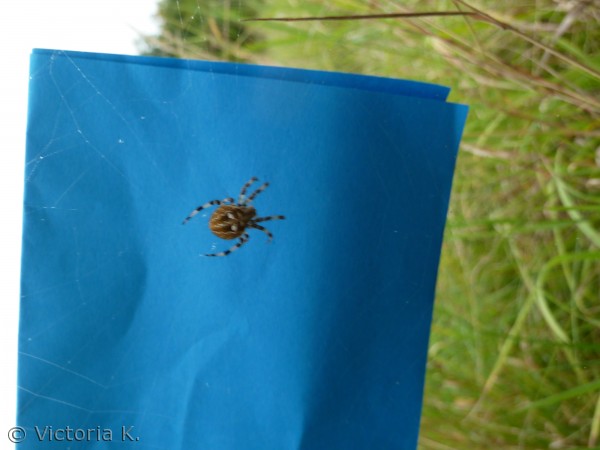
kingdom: Animalia
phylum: Arthropoda
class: Arachnida
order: Araneae
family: Araneidae
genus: Araneus
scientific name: Araneus diadematus
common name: Korsedderkop
